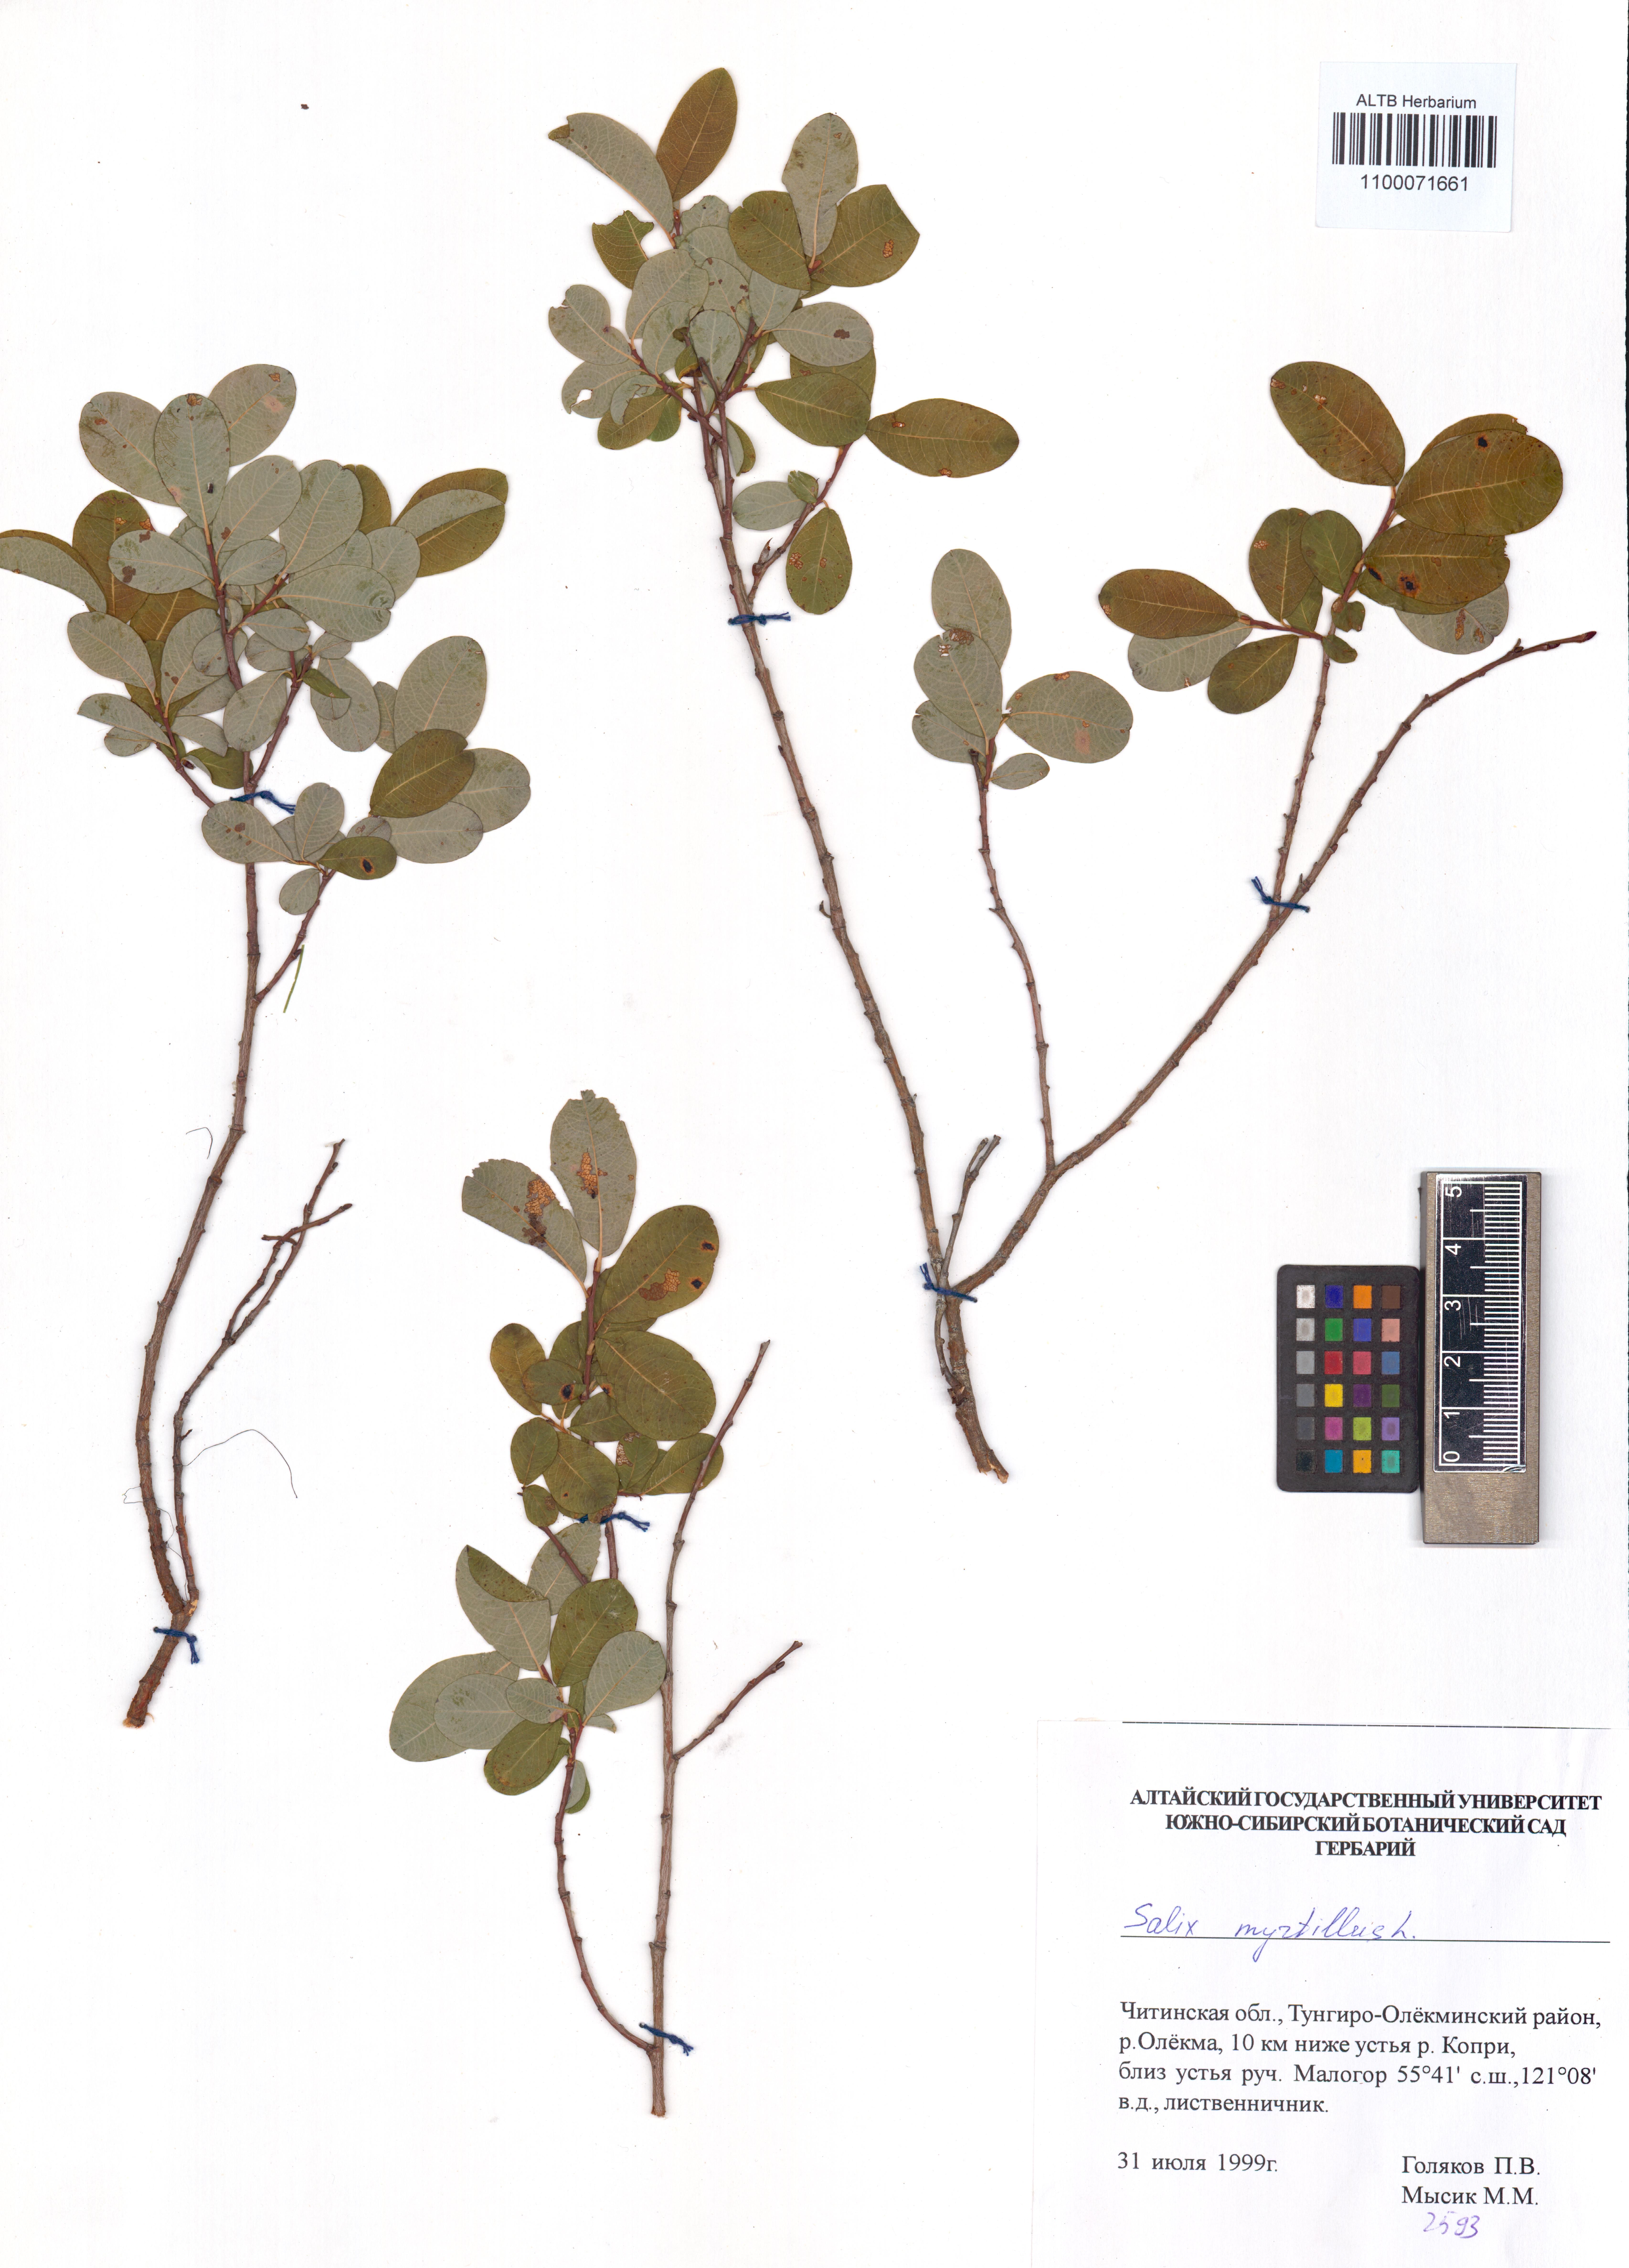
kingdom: Plantae
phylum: Tracheophyta
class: Magnoliopsida
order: Malpighiales
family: Salicaceae
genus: Salix
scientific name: Salix myrtilloides
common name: Myrtle-leaved willow
